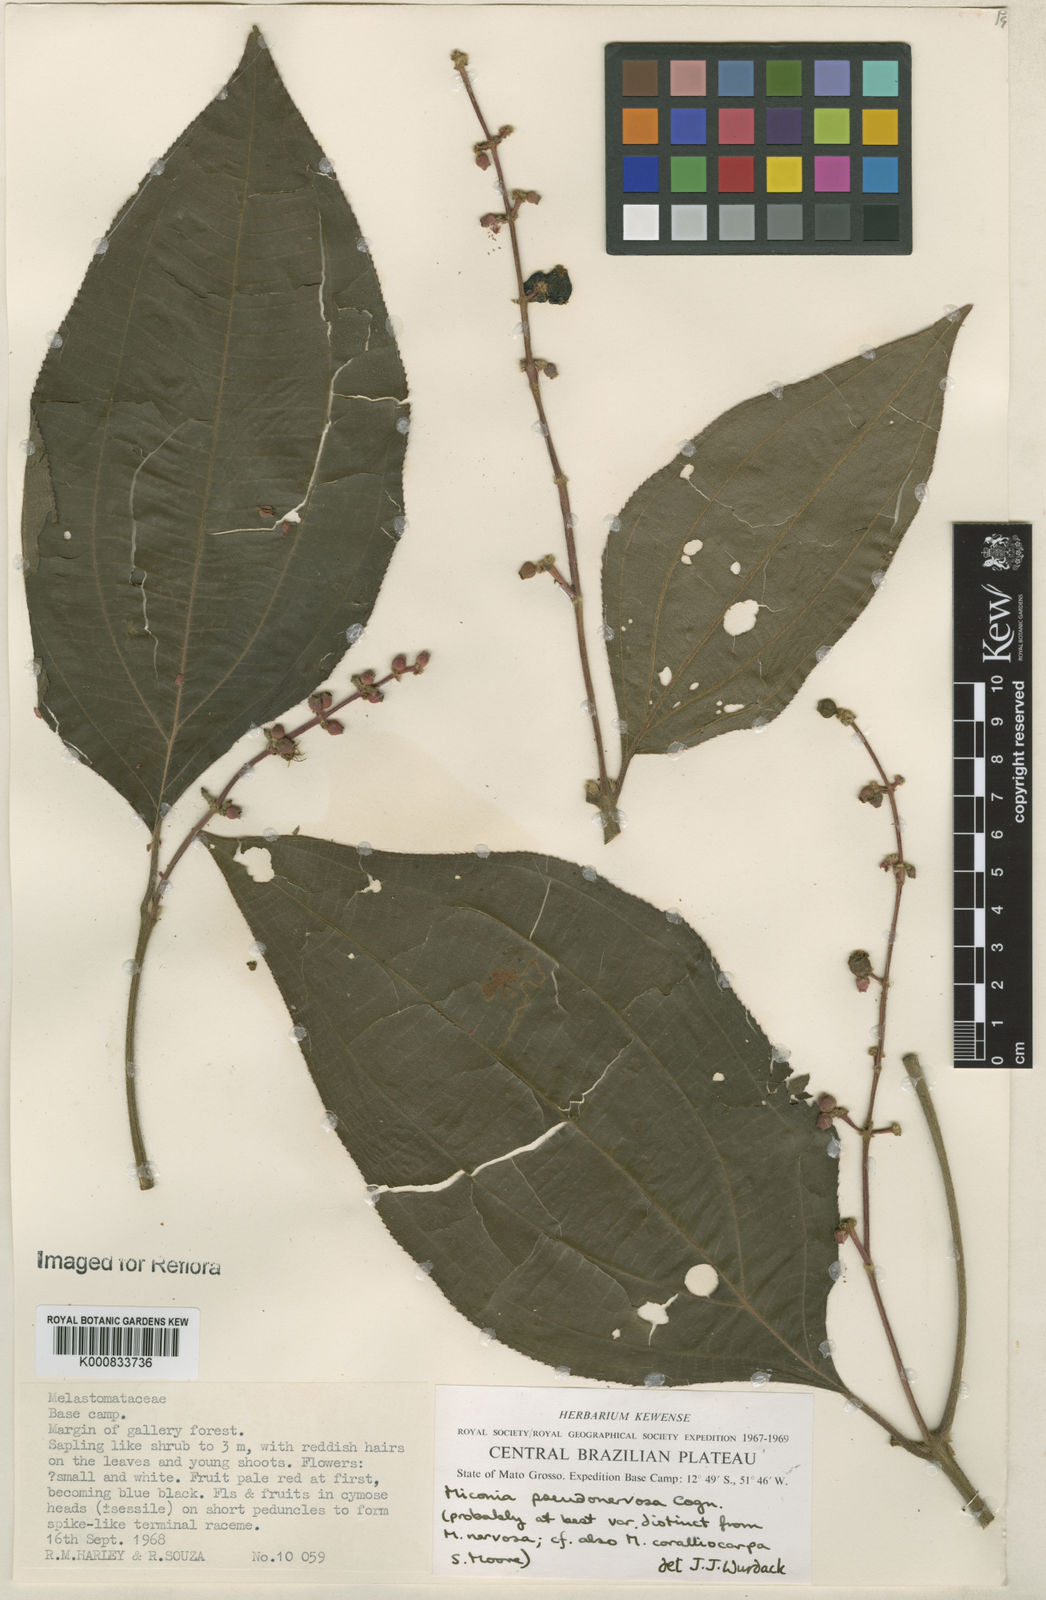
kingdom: Plantae
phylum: Tracheophyta
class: Magnoliopsida
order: Myrtales
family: Melastomataceae
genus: Miconia
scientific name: Miconia pseudonervosa
